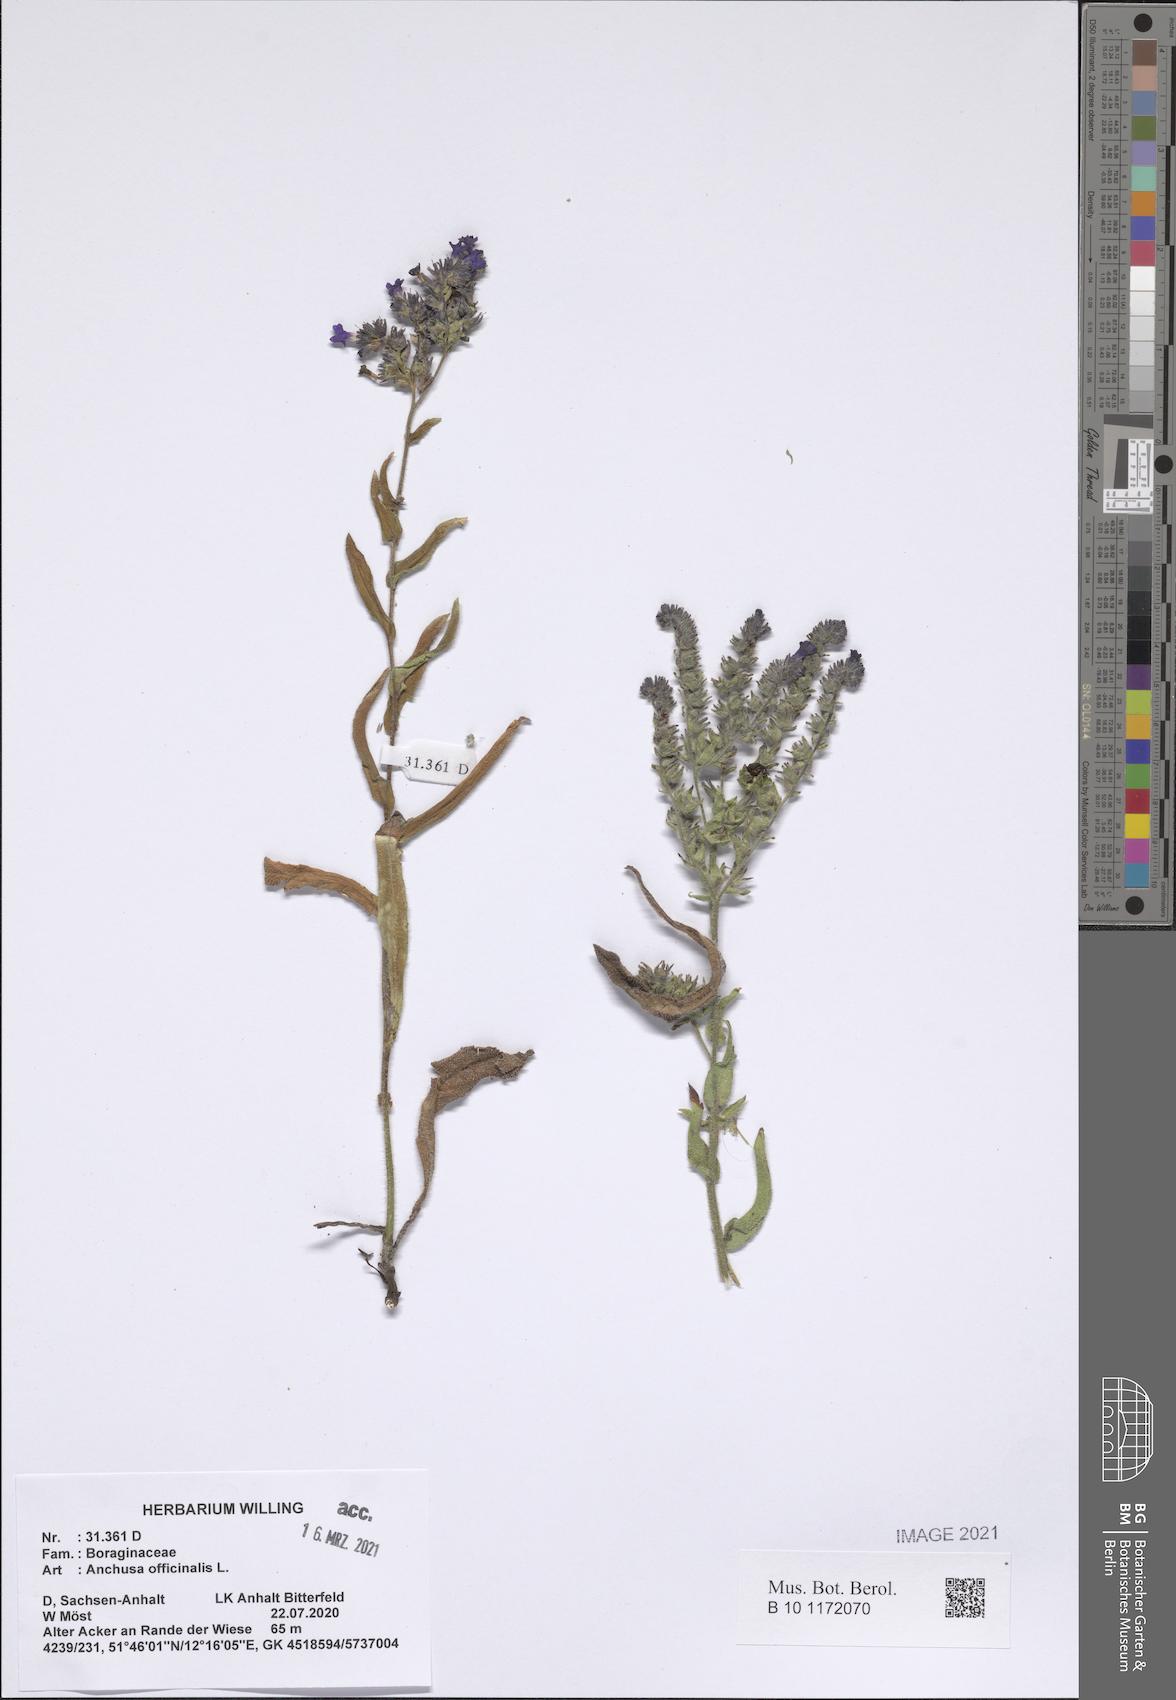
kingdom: Plantae
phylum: Tracheophyta
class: Magnoliopsida
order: Boraginales
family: Boraginaceae
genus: Anchusa
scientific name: Anchusa officinalis
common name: Alkanet
